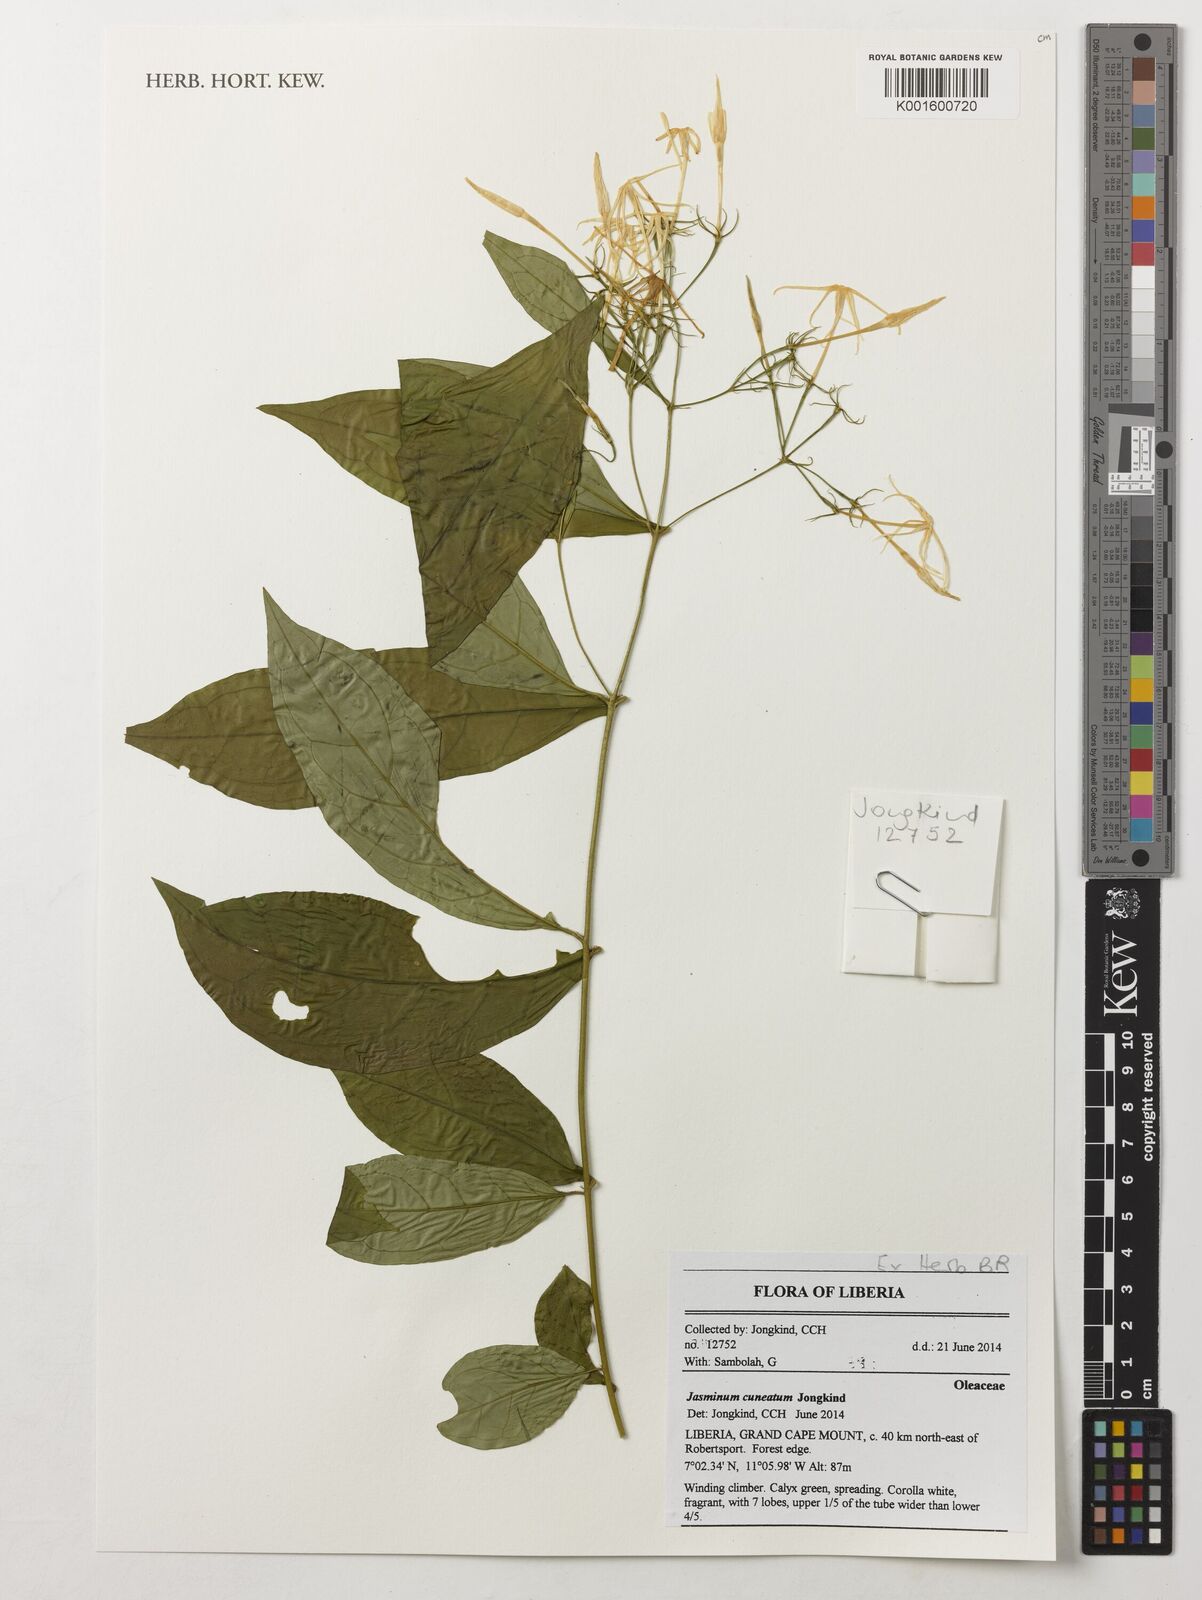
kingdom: Plantae
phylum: Tracheophyta
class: Magnoliopsida
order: Lamiales
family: Oleaceae
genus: Jasminum
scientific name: Jasminum dinklagei
